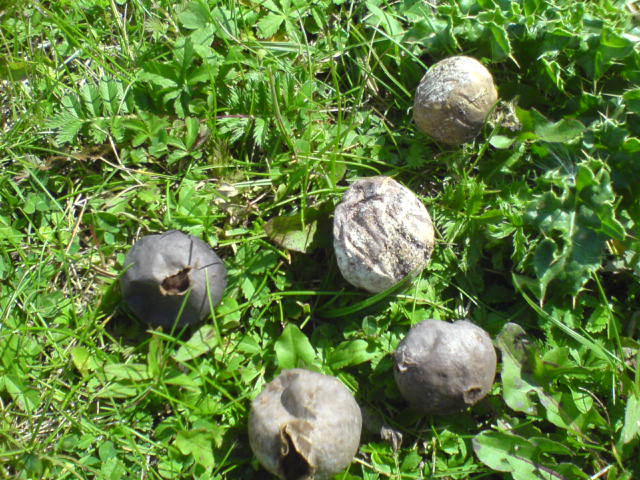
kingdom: Fungi
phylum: Basidiomycota
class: Agaricomycetes
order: Agaricales
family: Lycoperdaceae
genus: Bovista
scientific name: Bovista plumbea
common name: blygrå bovist
